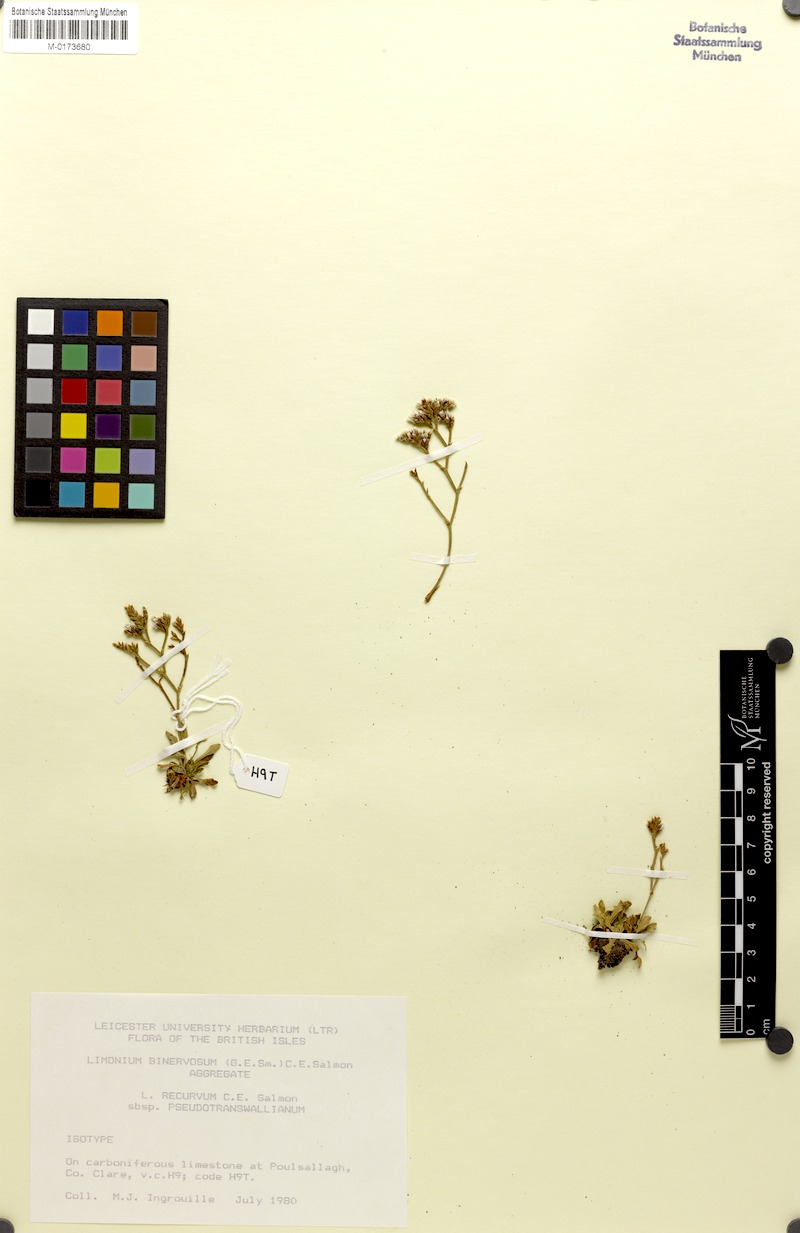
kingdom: Plantae
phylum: Tracheophyta
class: Magnoliopsida
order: Caryophyllales
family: Plumbaginaceae
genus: Limonium
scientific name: Limonium recurvum
